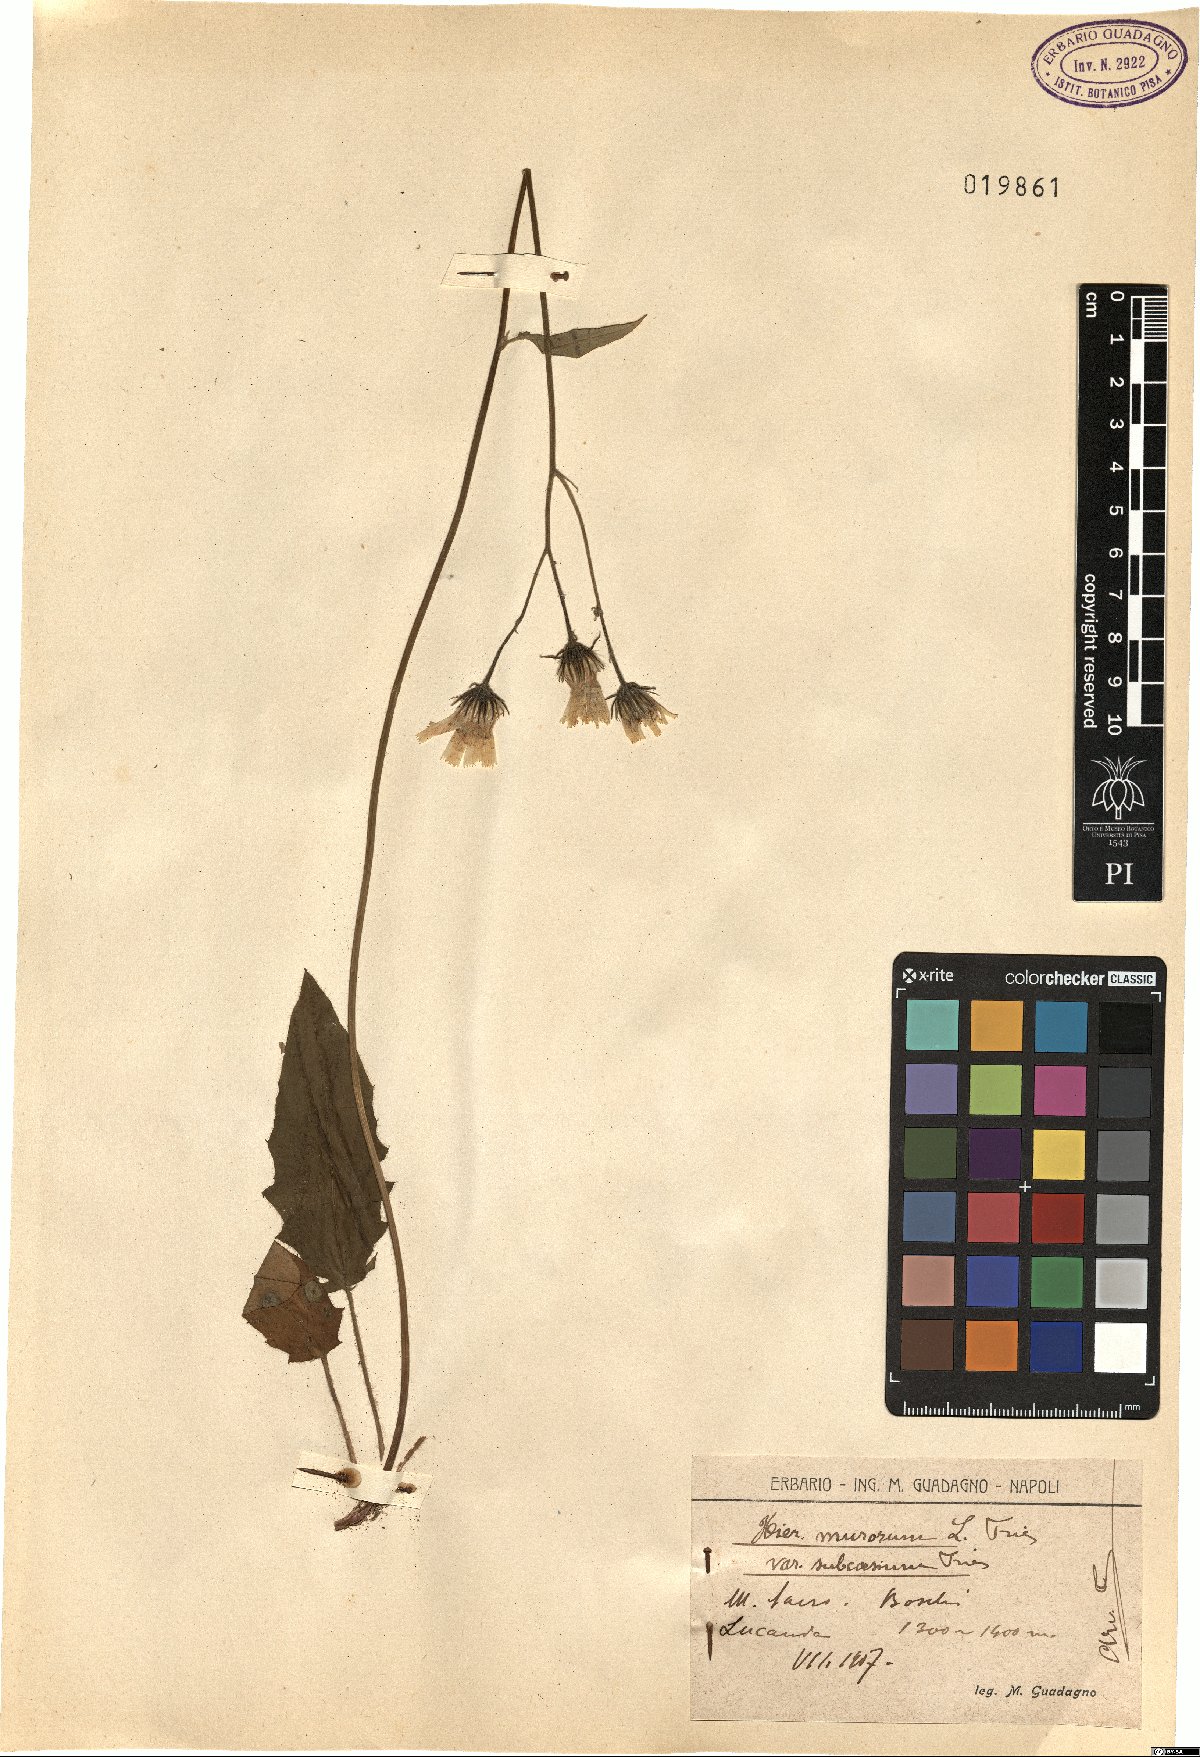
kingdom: Plantae
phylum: Tracheophyta
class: Magnoliopsida
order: Asterales
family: Asteraceae
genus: Hieracium
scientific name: Hieracium subcaesium
